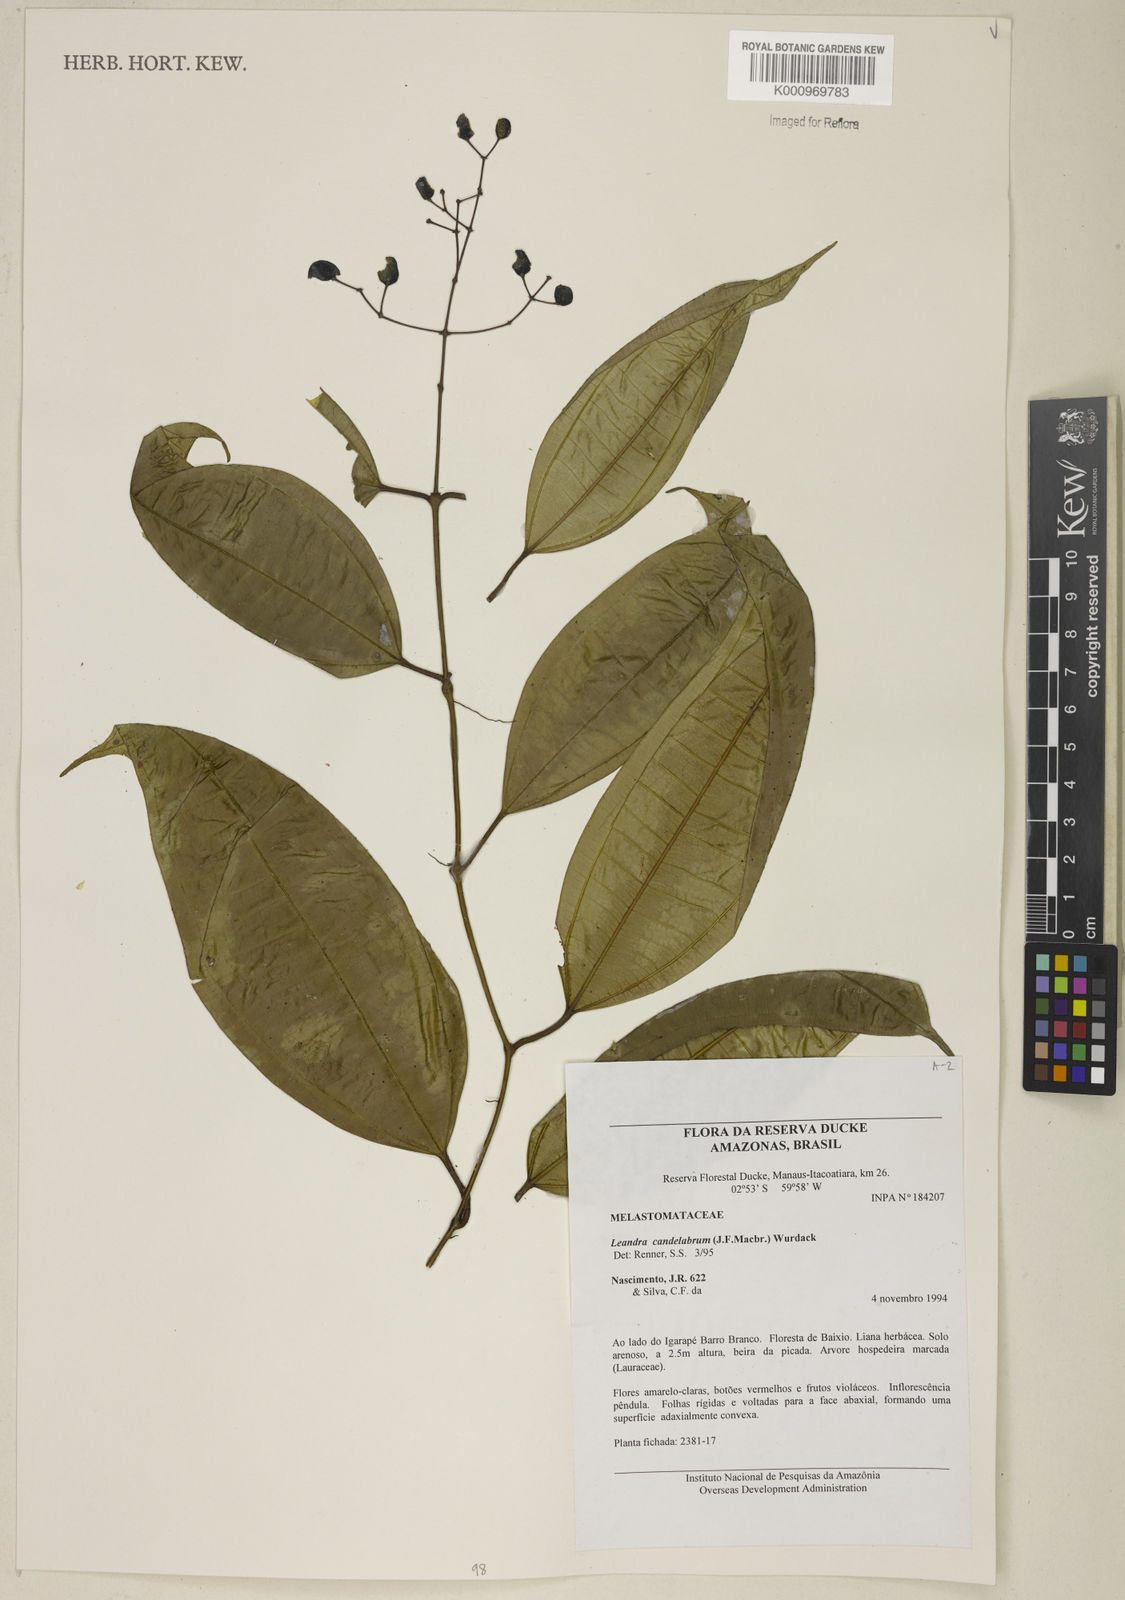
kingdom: Plantae
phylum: Tracheophyta
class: Magnoliopsida
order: Myrtales
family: Melastomataceae
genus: Miconia
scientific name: Miconia candelabrum
